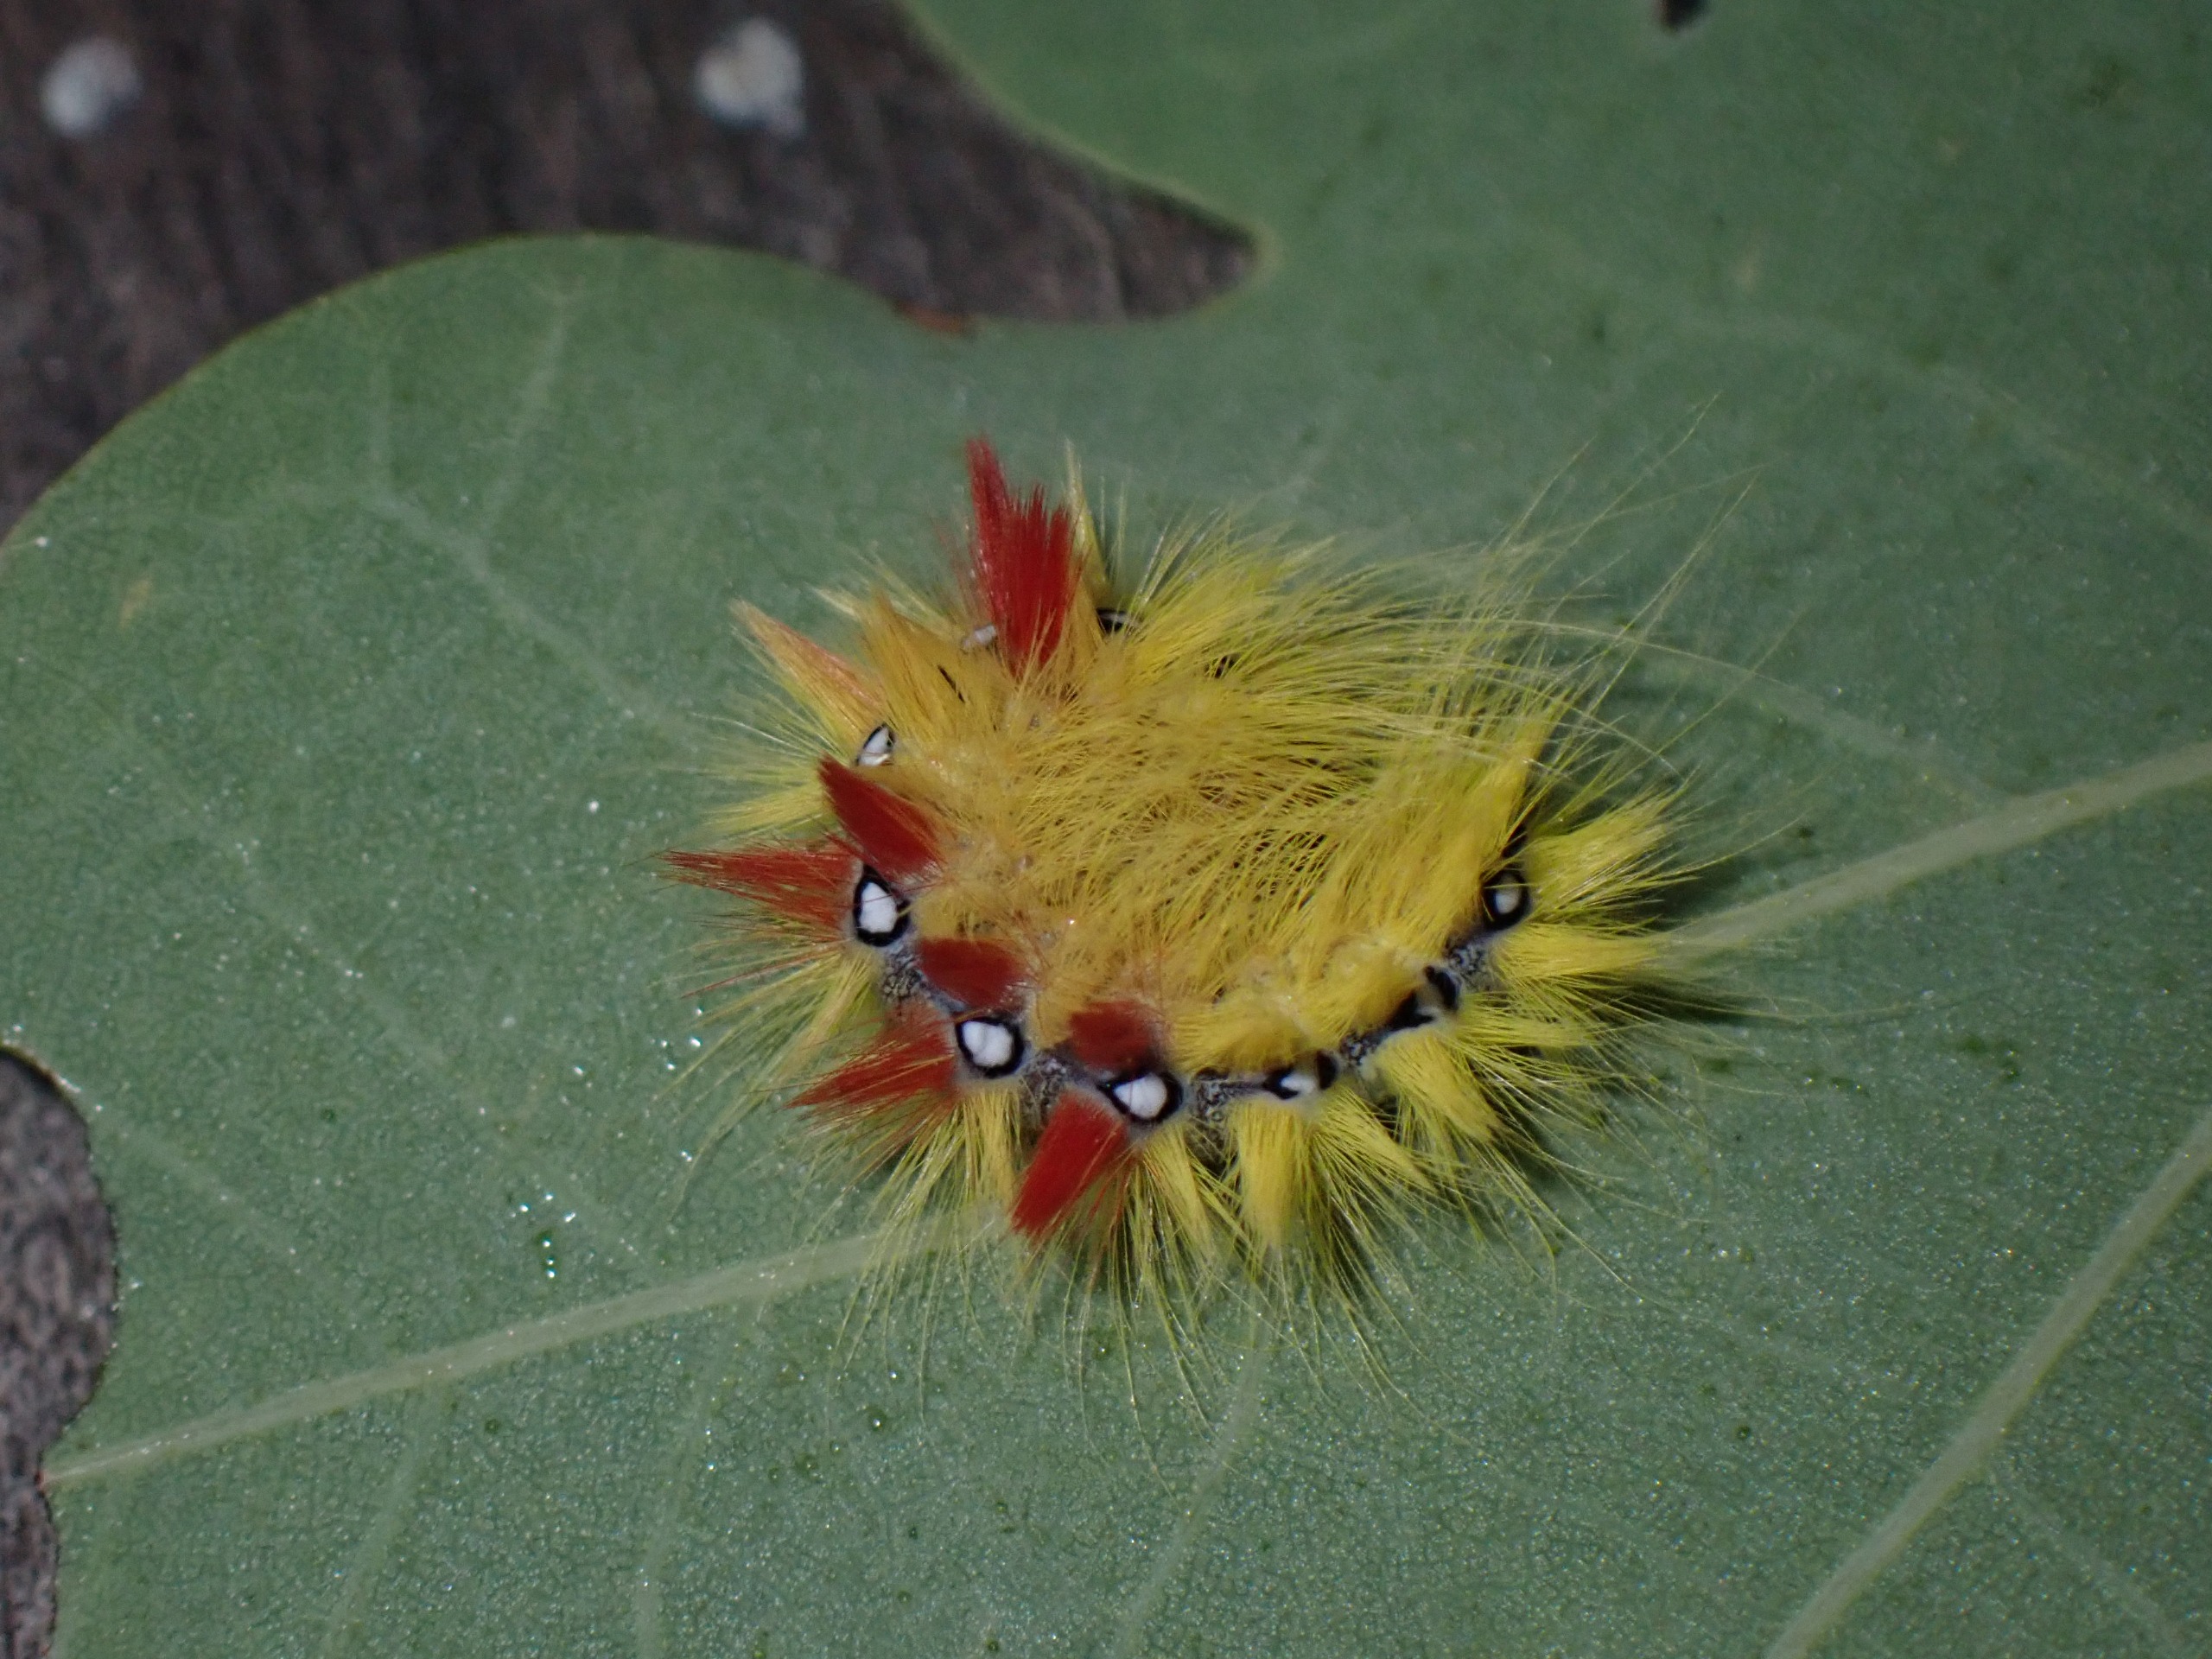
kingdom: Animalia
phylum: Arthropoda
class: Insecta
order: Lepidoptera
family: Noctuidae
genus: Acronicta
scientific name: Acronicta aceris
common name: Ahornugle
